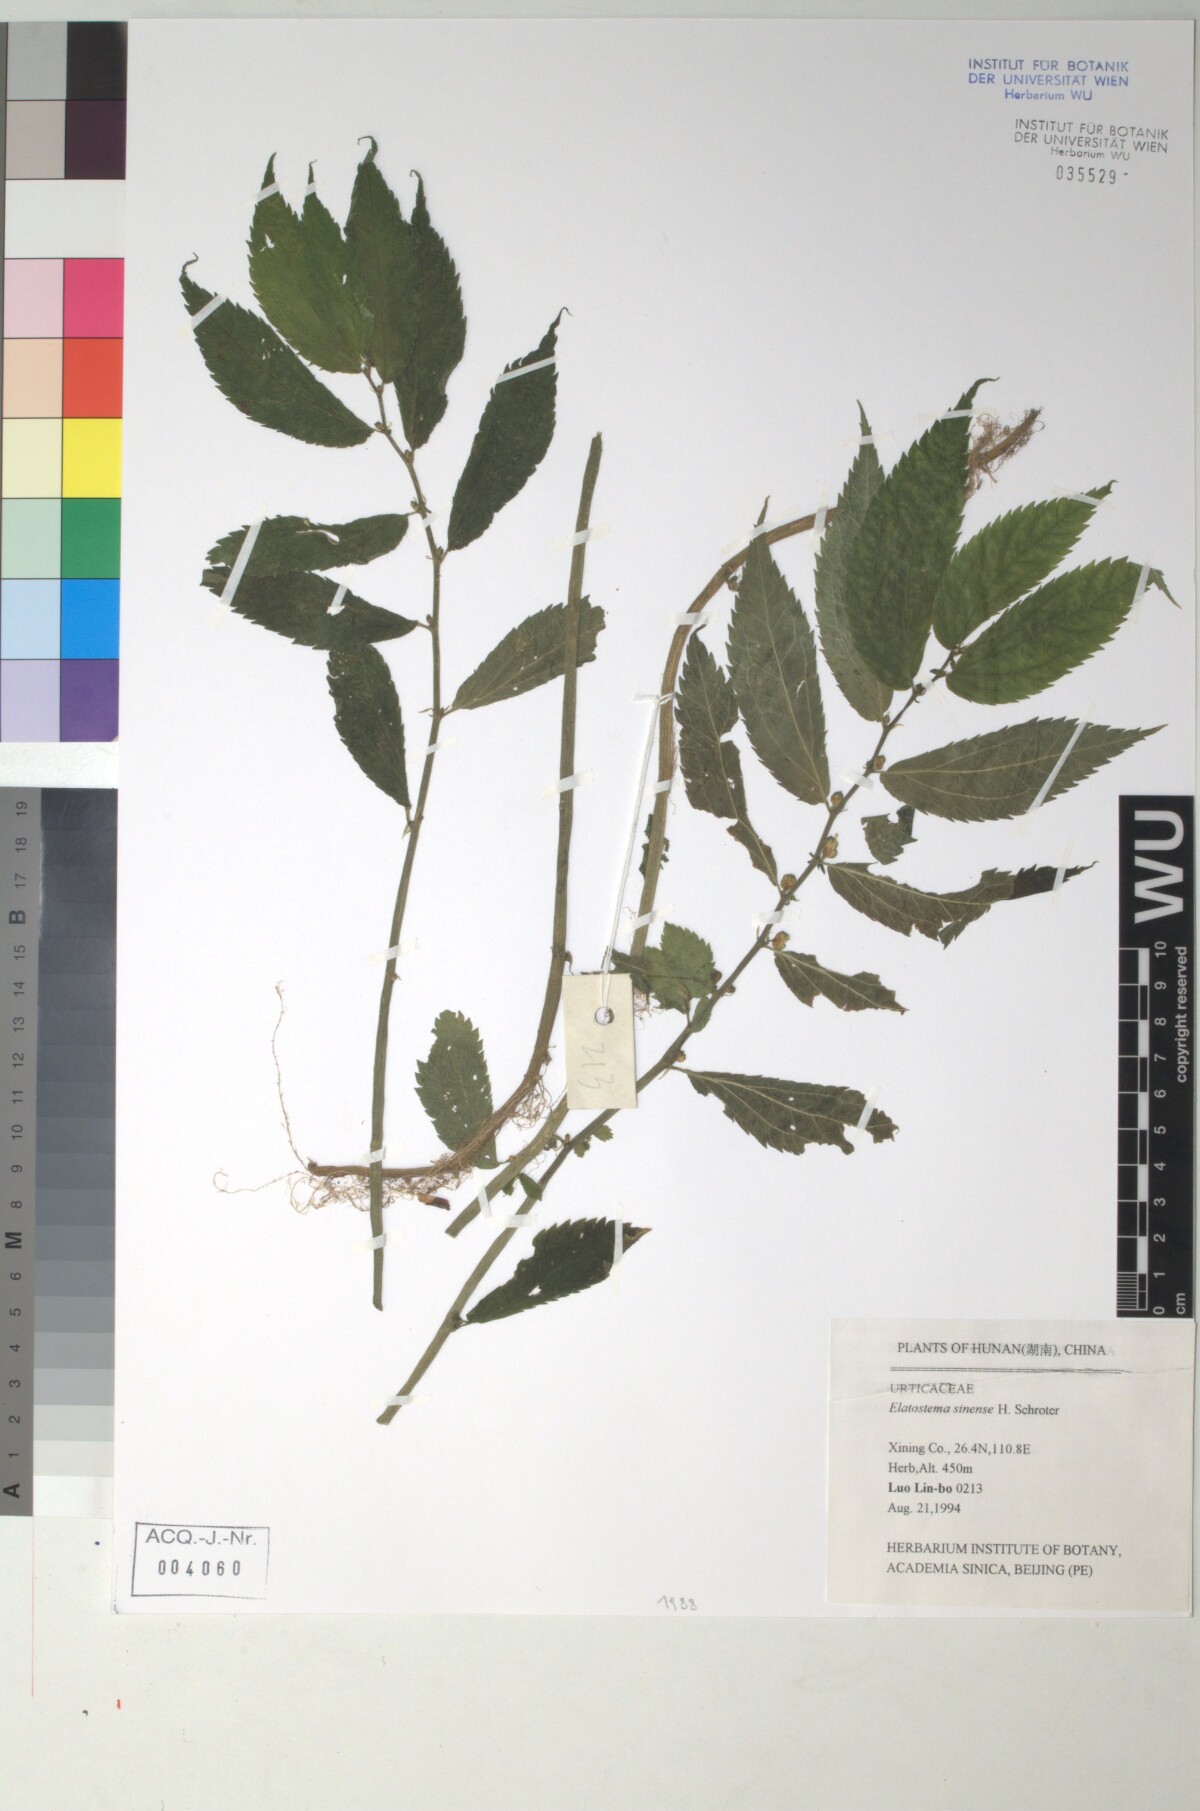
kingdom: Plantae
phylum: Tracheophyta
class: Magnoliopsida
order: Rosales
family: Urticaceae
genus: Elatostema
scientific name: Elatostema sinense
